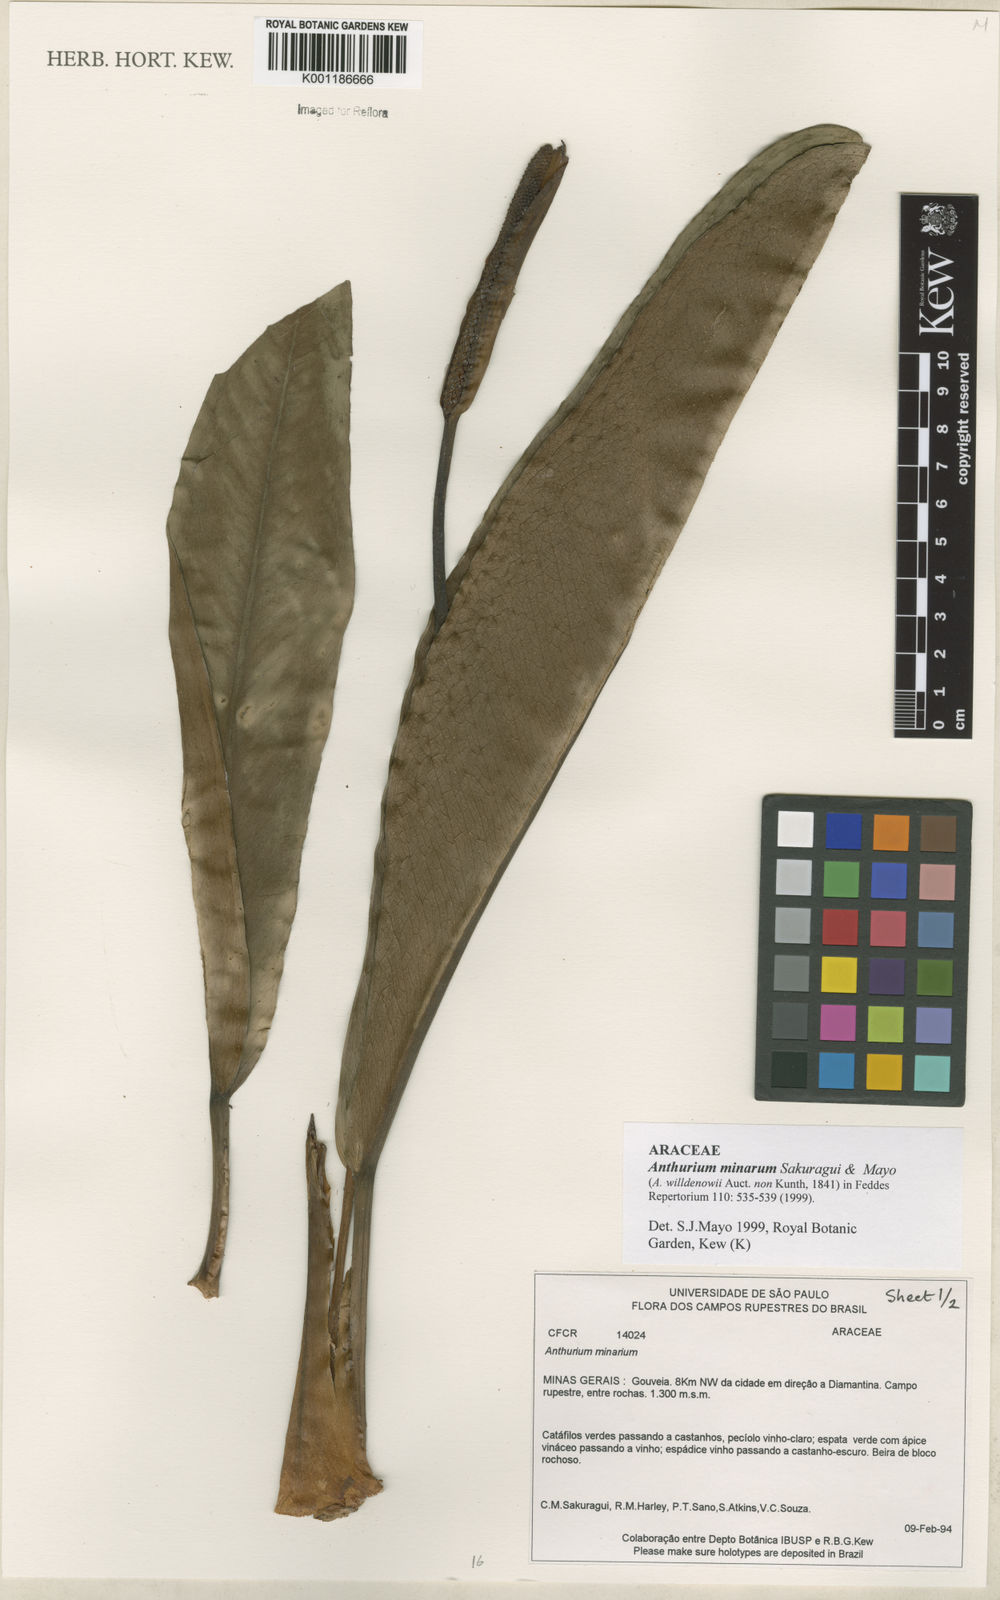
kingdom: Plantae
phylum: Tracheophyta
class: Liliopsida
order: Alismatales
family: Araceae
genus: Anthurium
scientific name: Anthurium minarum
